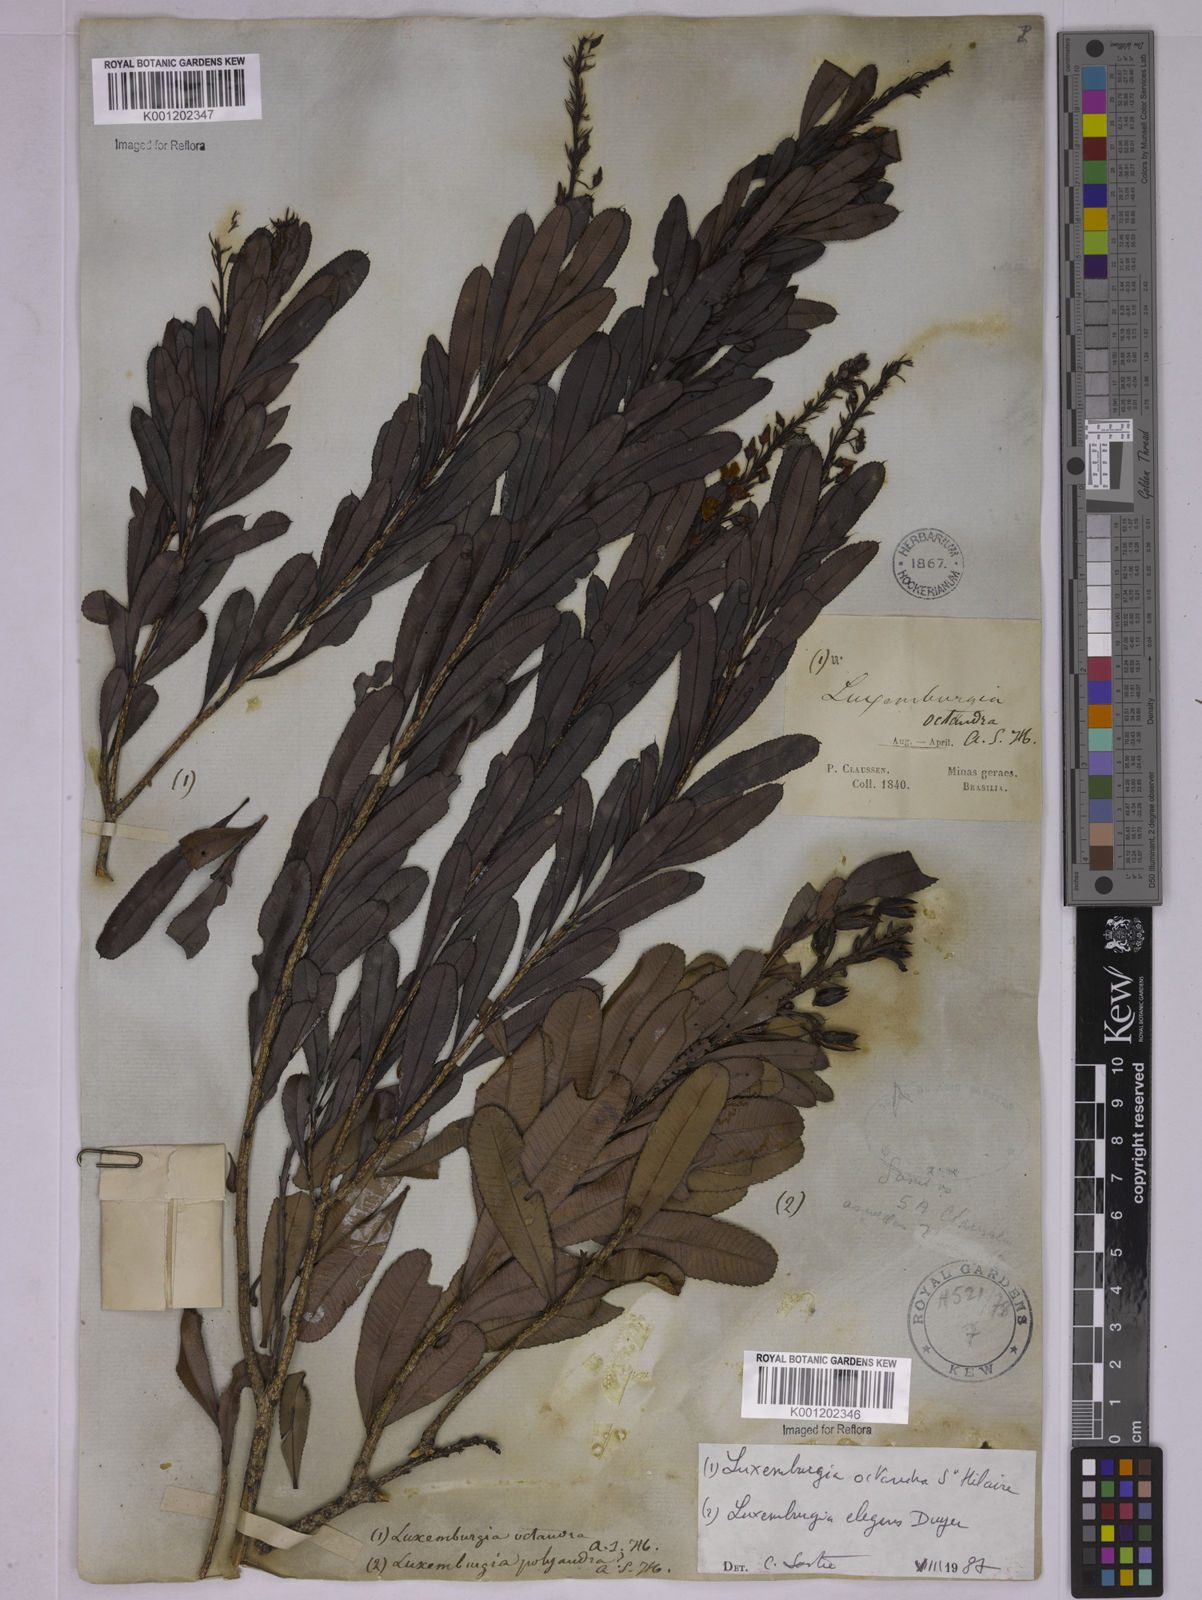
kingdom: Plantae
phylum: Tracheophyta
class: Magnoliopsida
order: Malpighiales
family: Ochnaceae
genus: Luxemburgia
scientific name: Luxemburgia octandra
